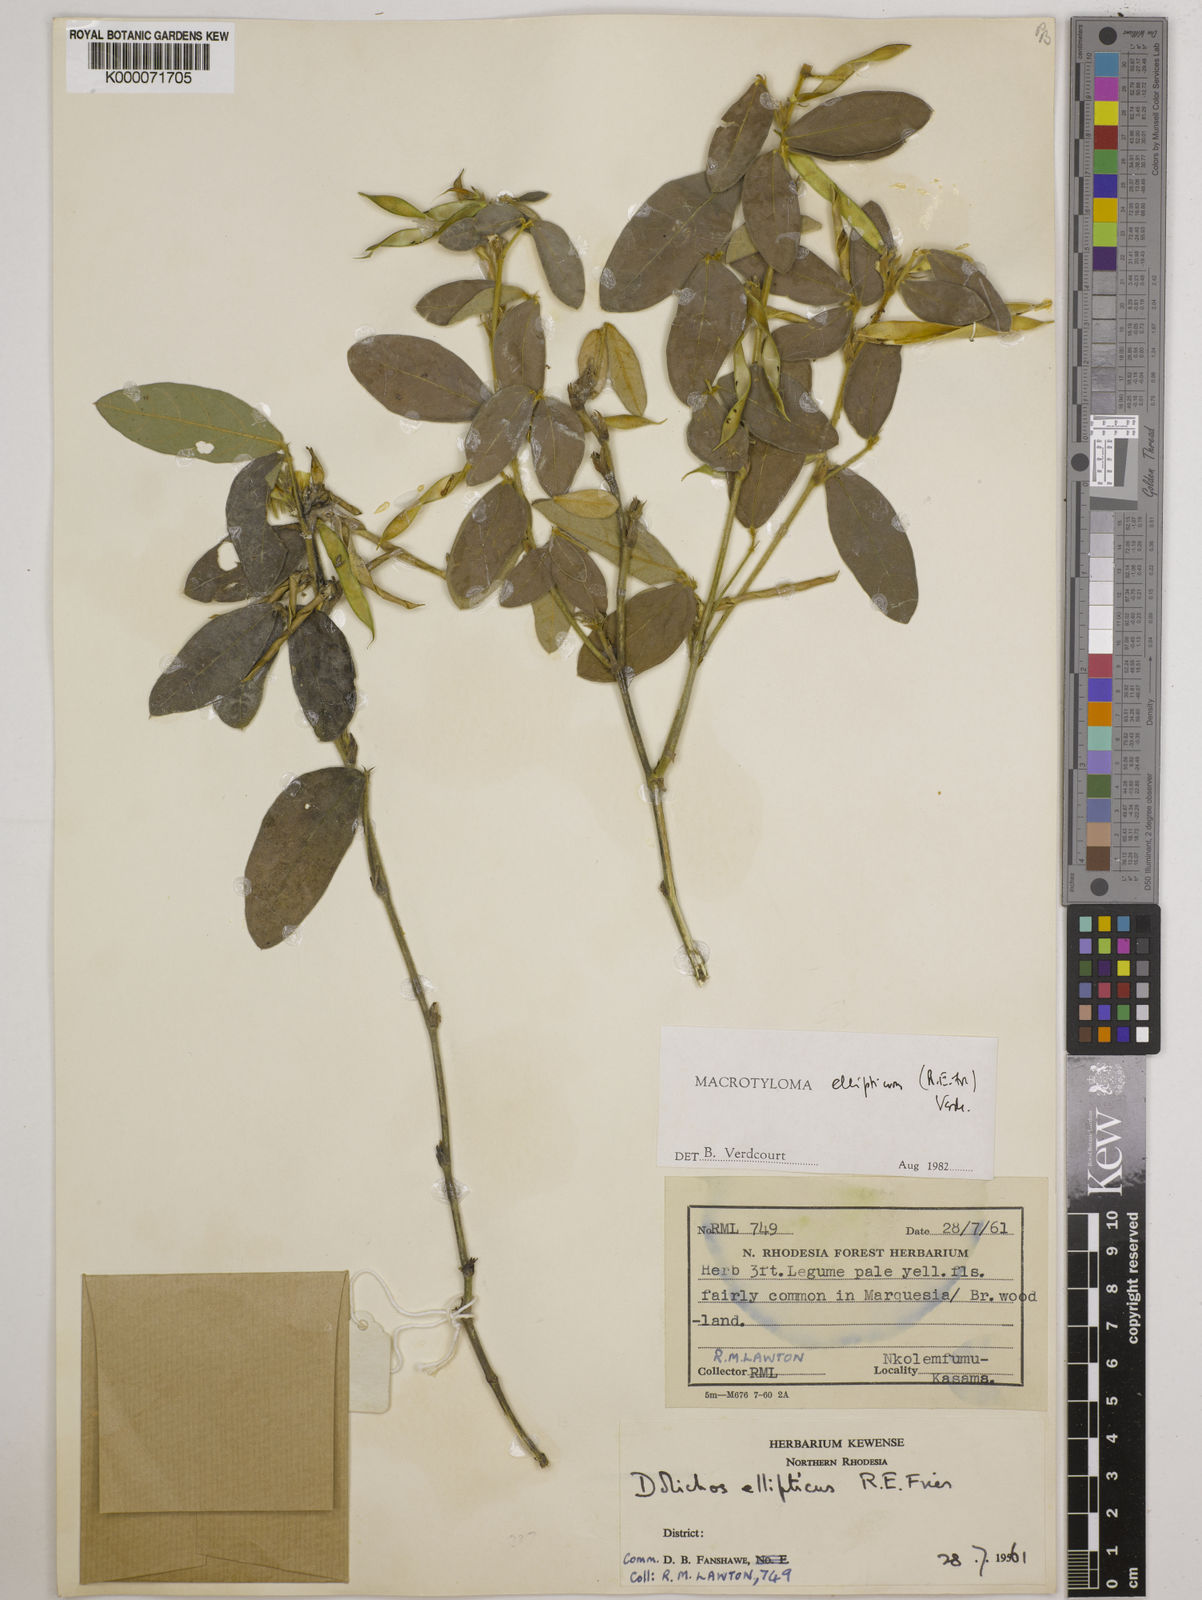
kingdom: Plantae
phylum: Tracheophyta
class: Magnoliopsida
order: Fabales
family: Fabaceae
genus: Macrotyloma
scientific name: Macrotyloma ellipticum
